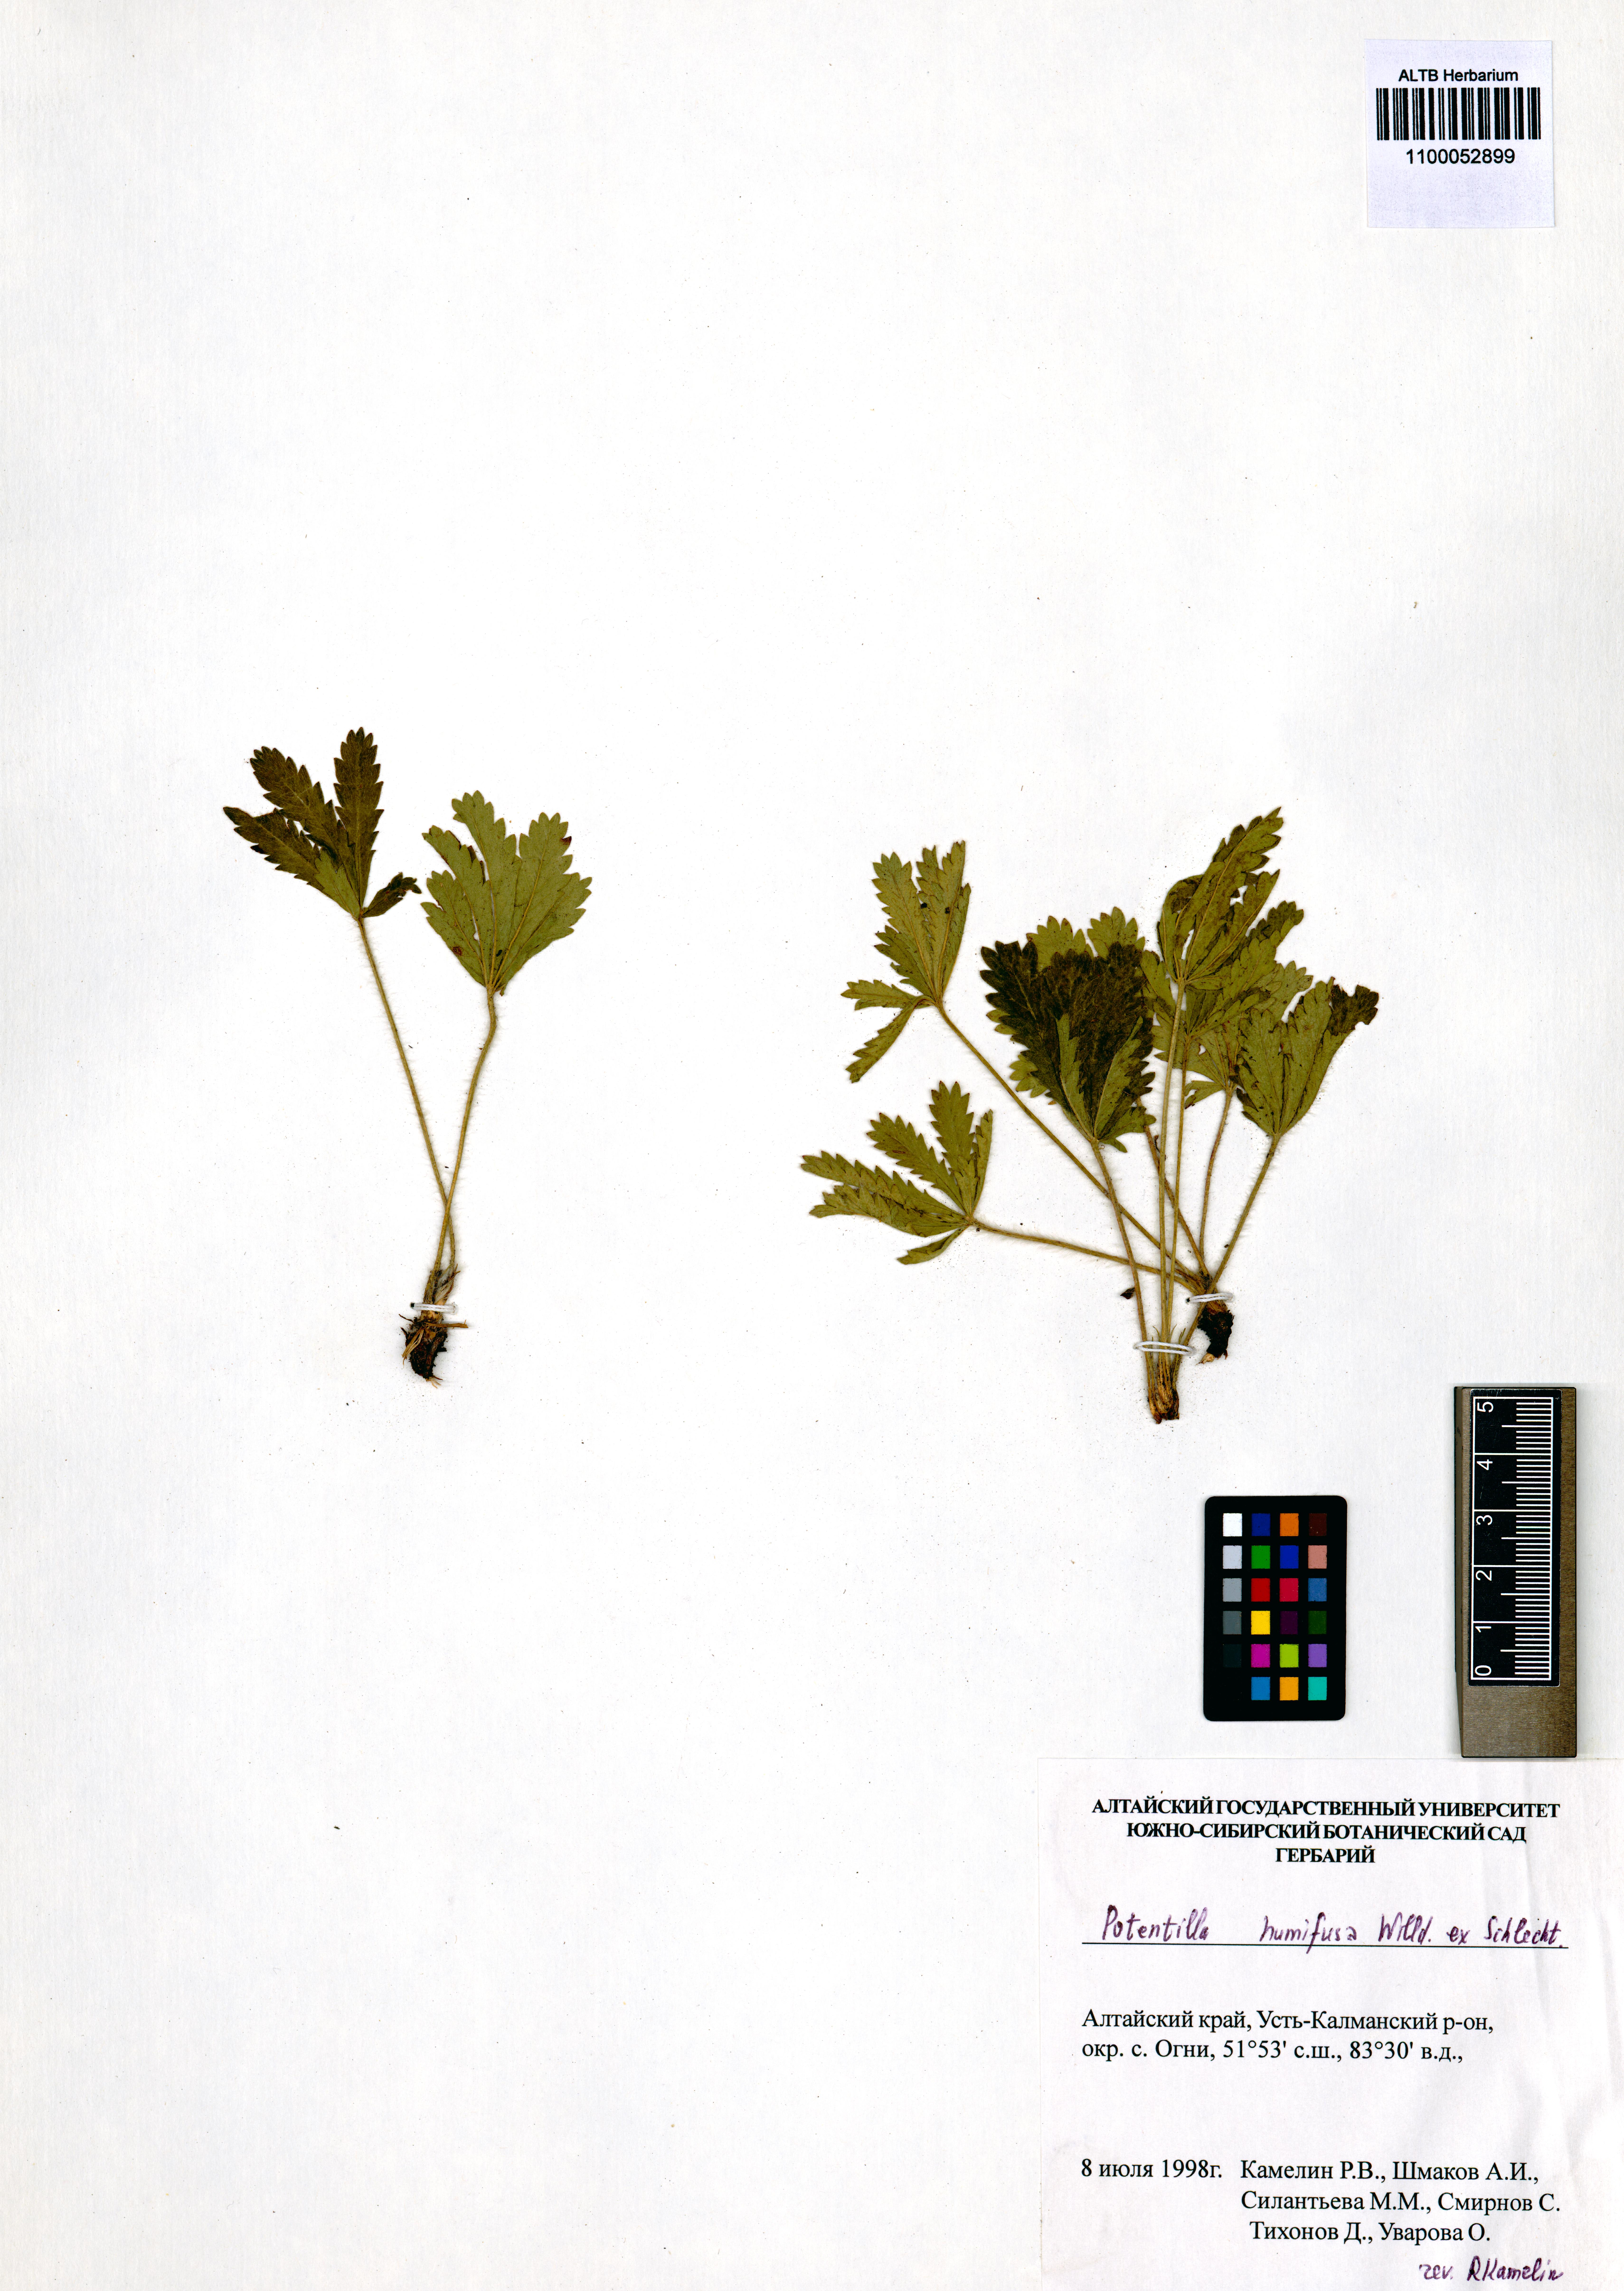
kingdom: Plantae
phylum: Tracheophyta
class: Magnoliopsida
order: Rosales
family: Rosaceae
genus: Potentilla
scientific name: Potentilla humifusa
